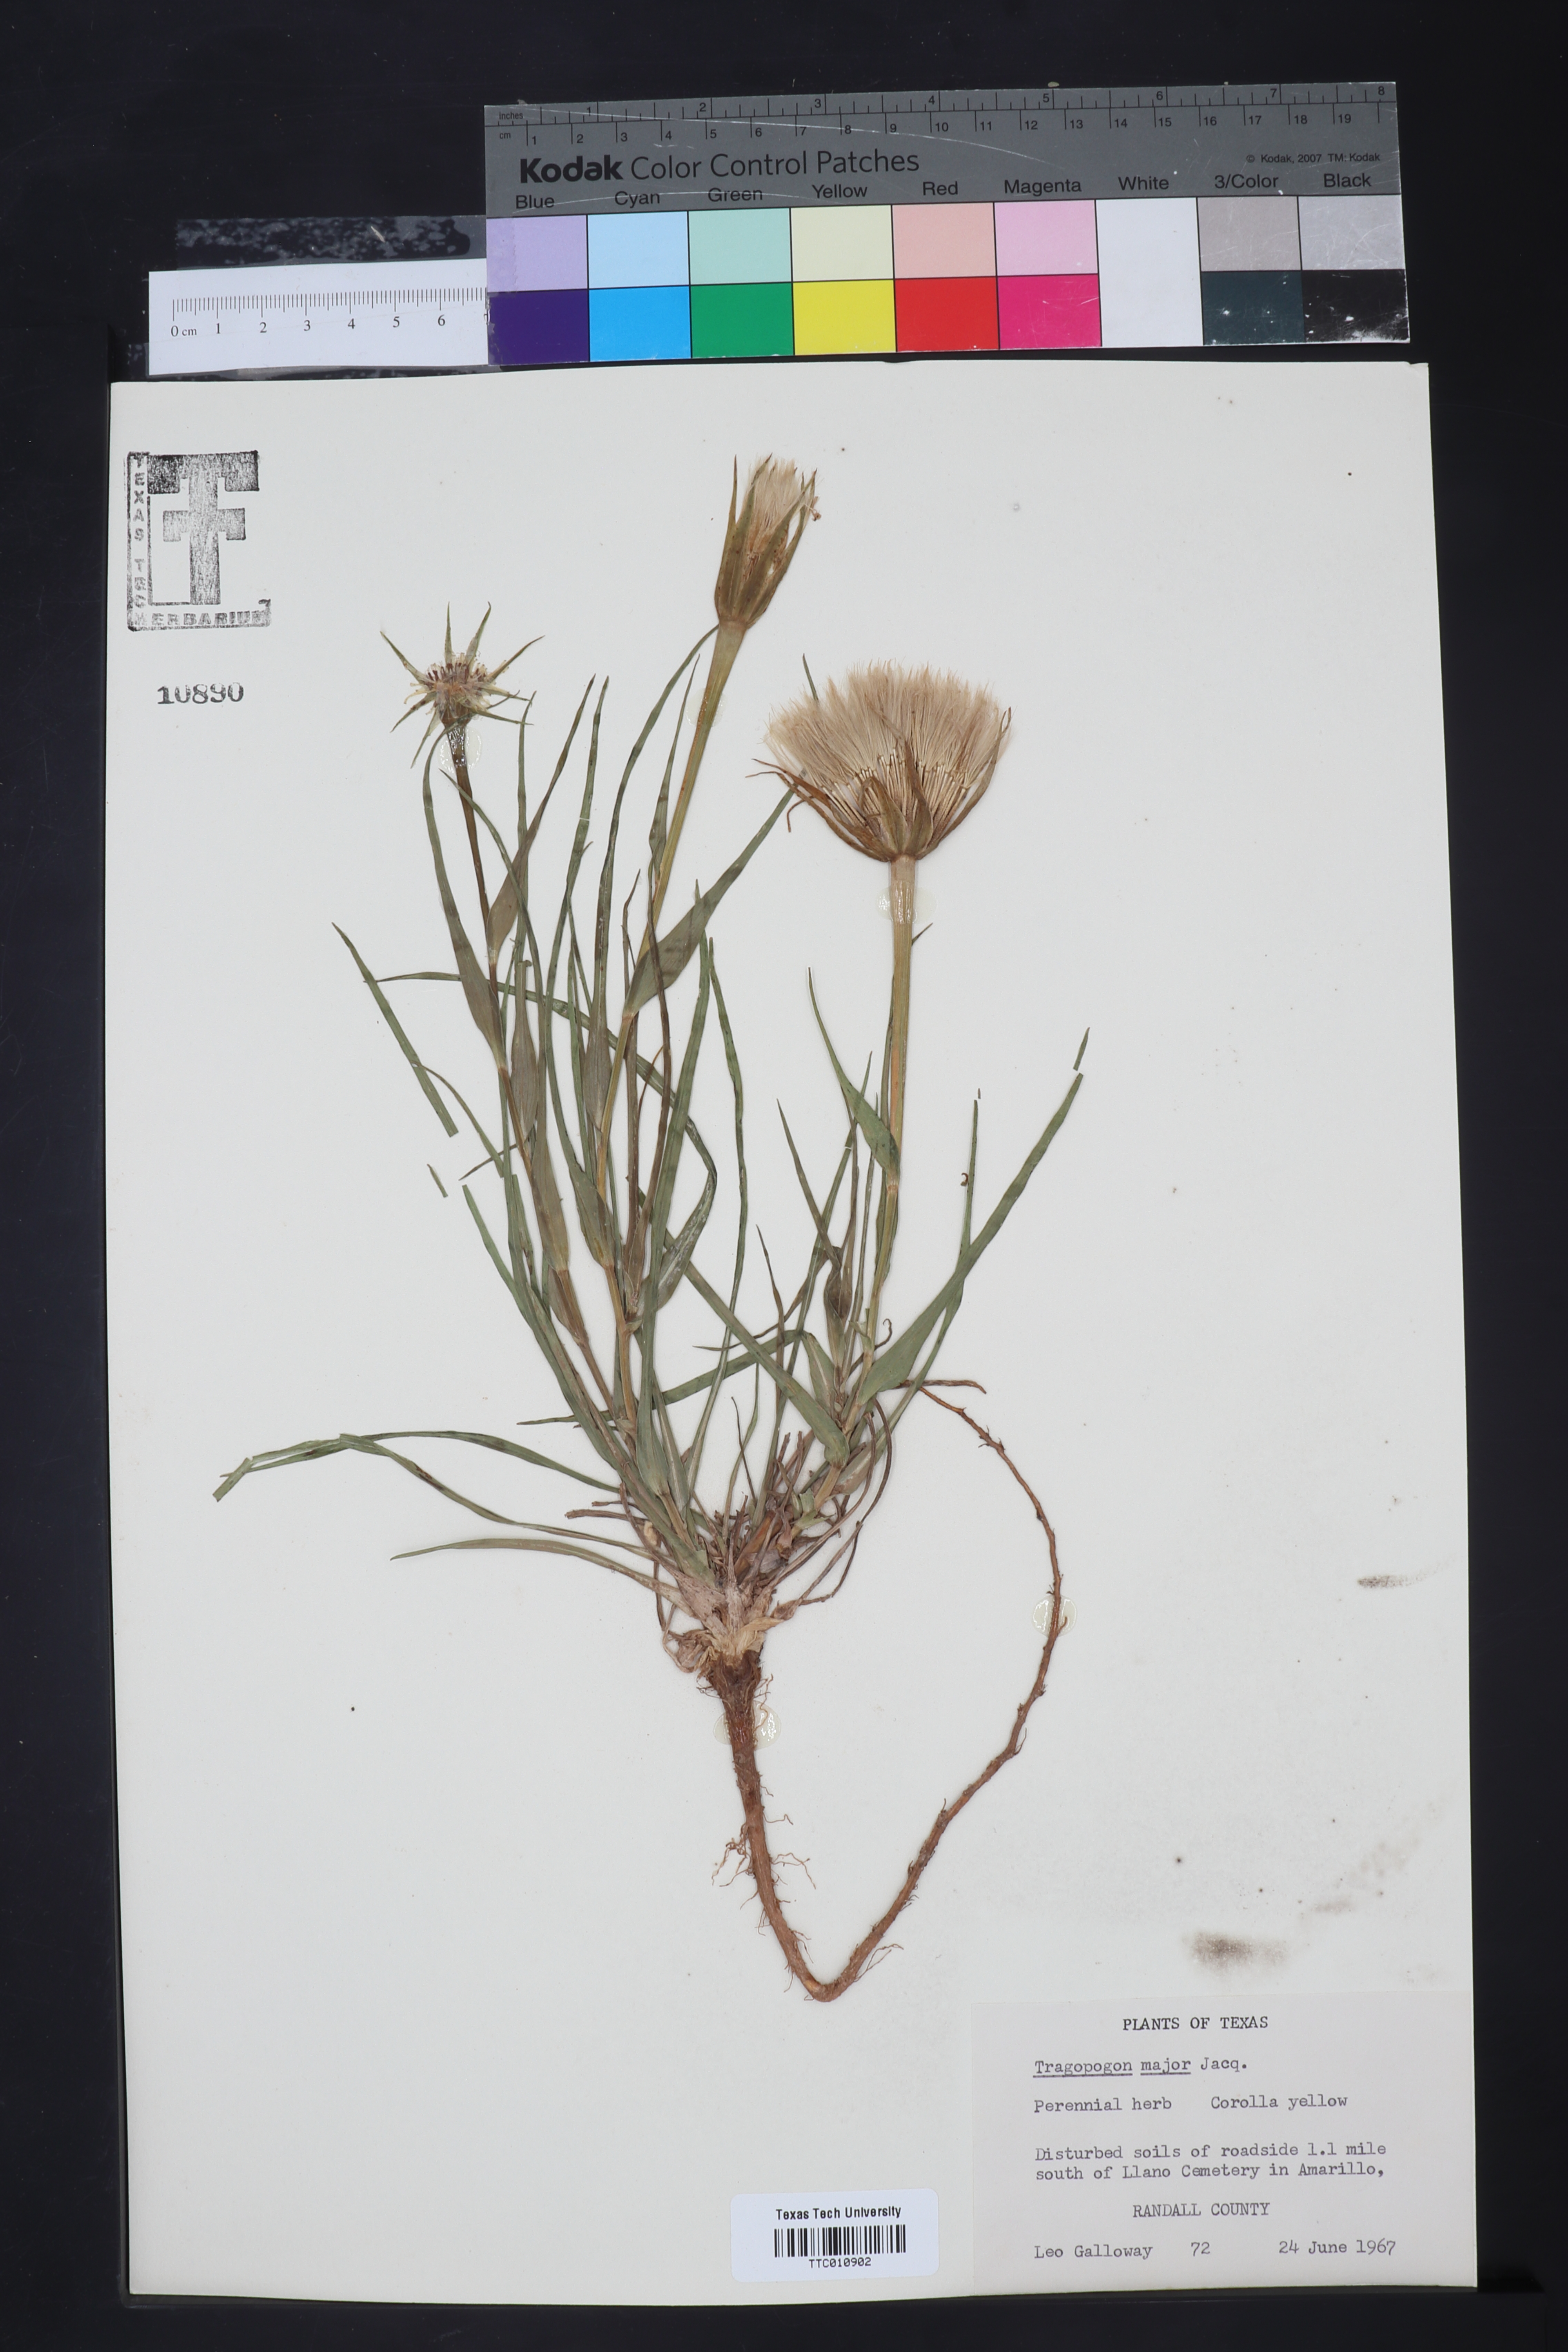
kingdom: Plantae
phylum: Tracheophyta
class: Magnoliopsida
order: Asterales
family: Asteraceae
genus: Tragopogon
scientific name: Tragopogon dubius
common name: Yellow salsify
